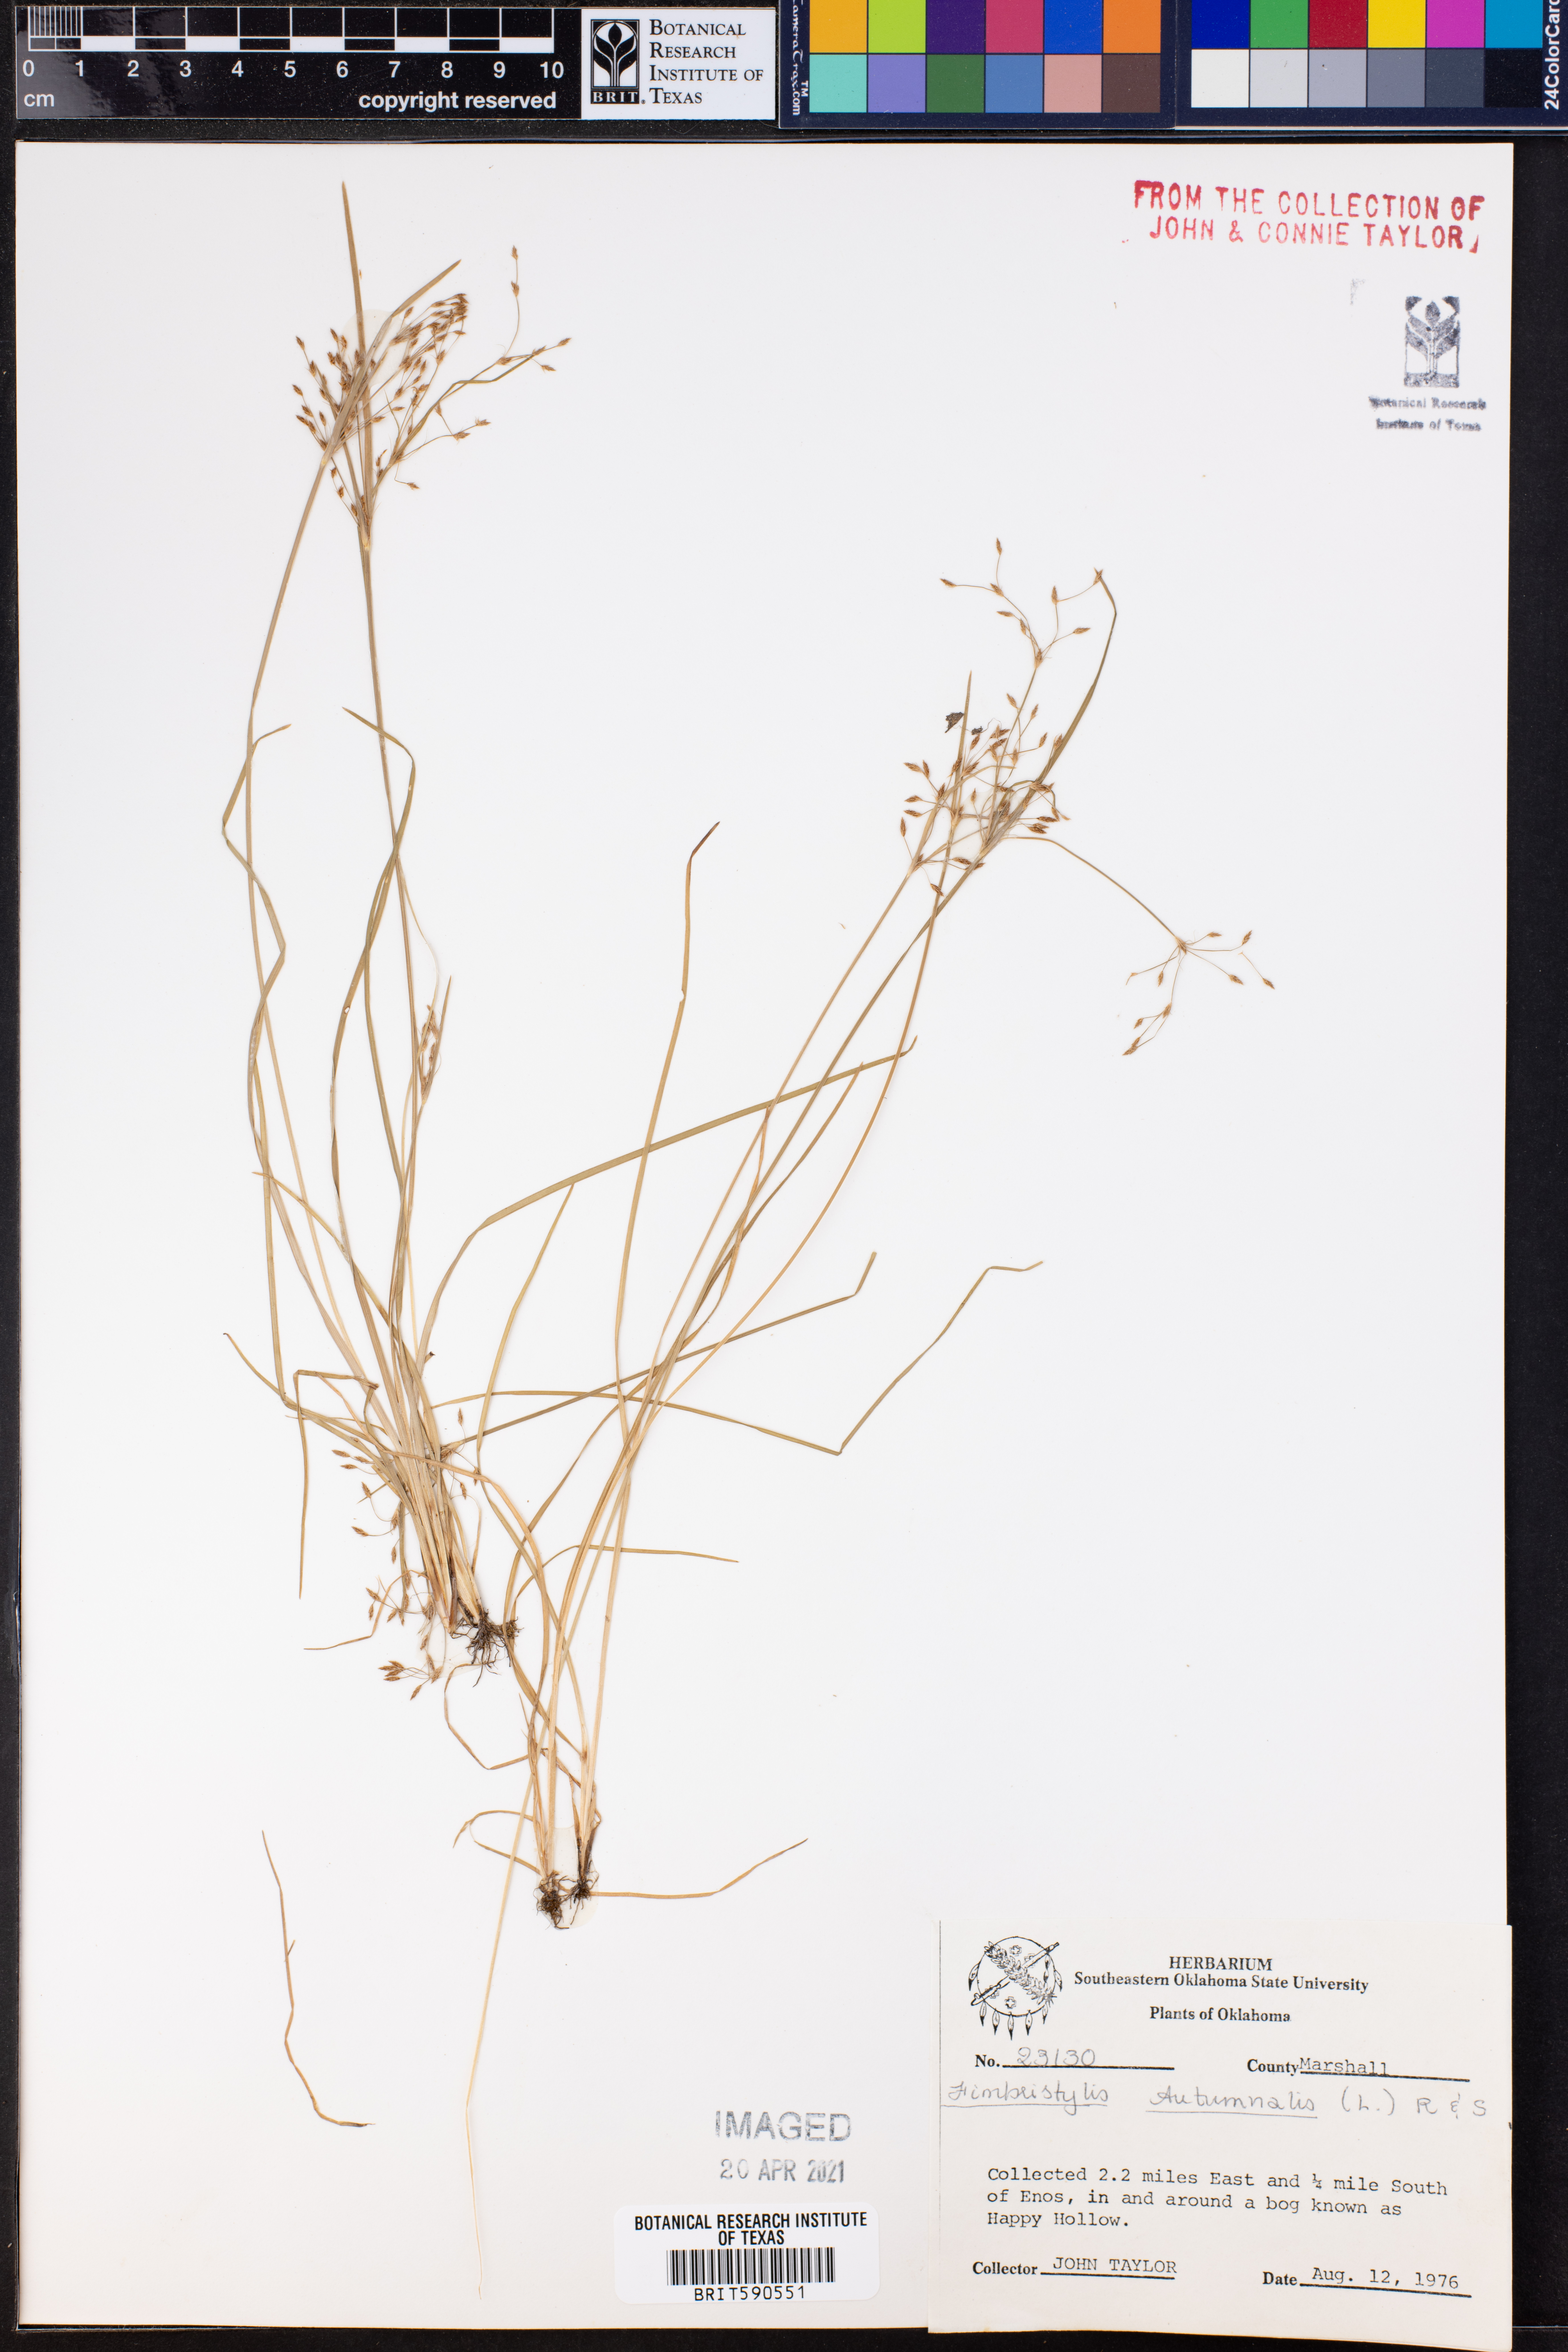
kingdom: Plantae
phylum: Tracheophyta
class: Liliopsida
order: Poales
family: Cyperaceae
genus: Fimbristylis
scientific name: Fimbristylis autumnalis
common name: Slender fimbristylis
